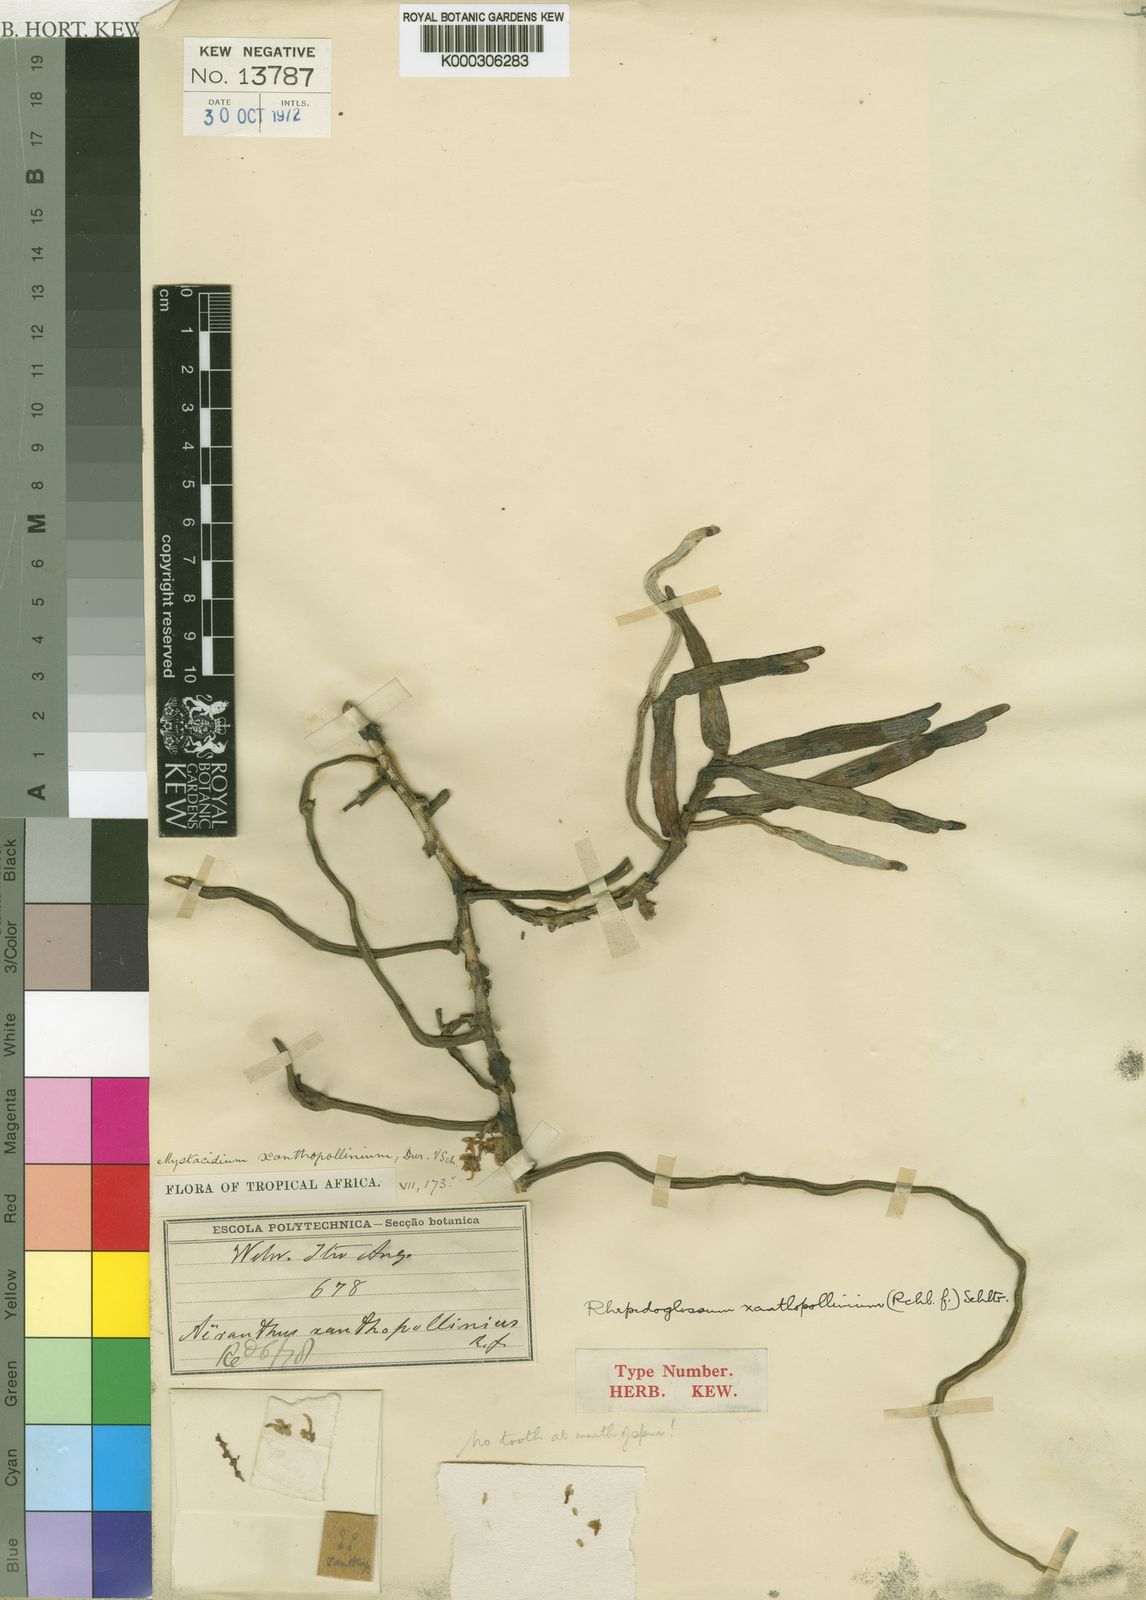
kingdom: Plantae
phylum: Tracheophyta
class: Liliopsida
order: Asparagales
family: Orchidaceae
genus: Rhipidoglossum
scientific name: Rhipidoglossum xanthopollinium
